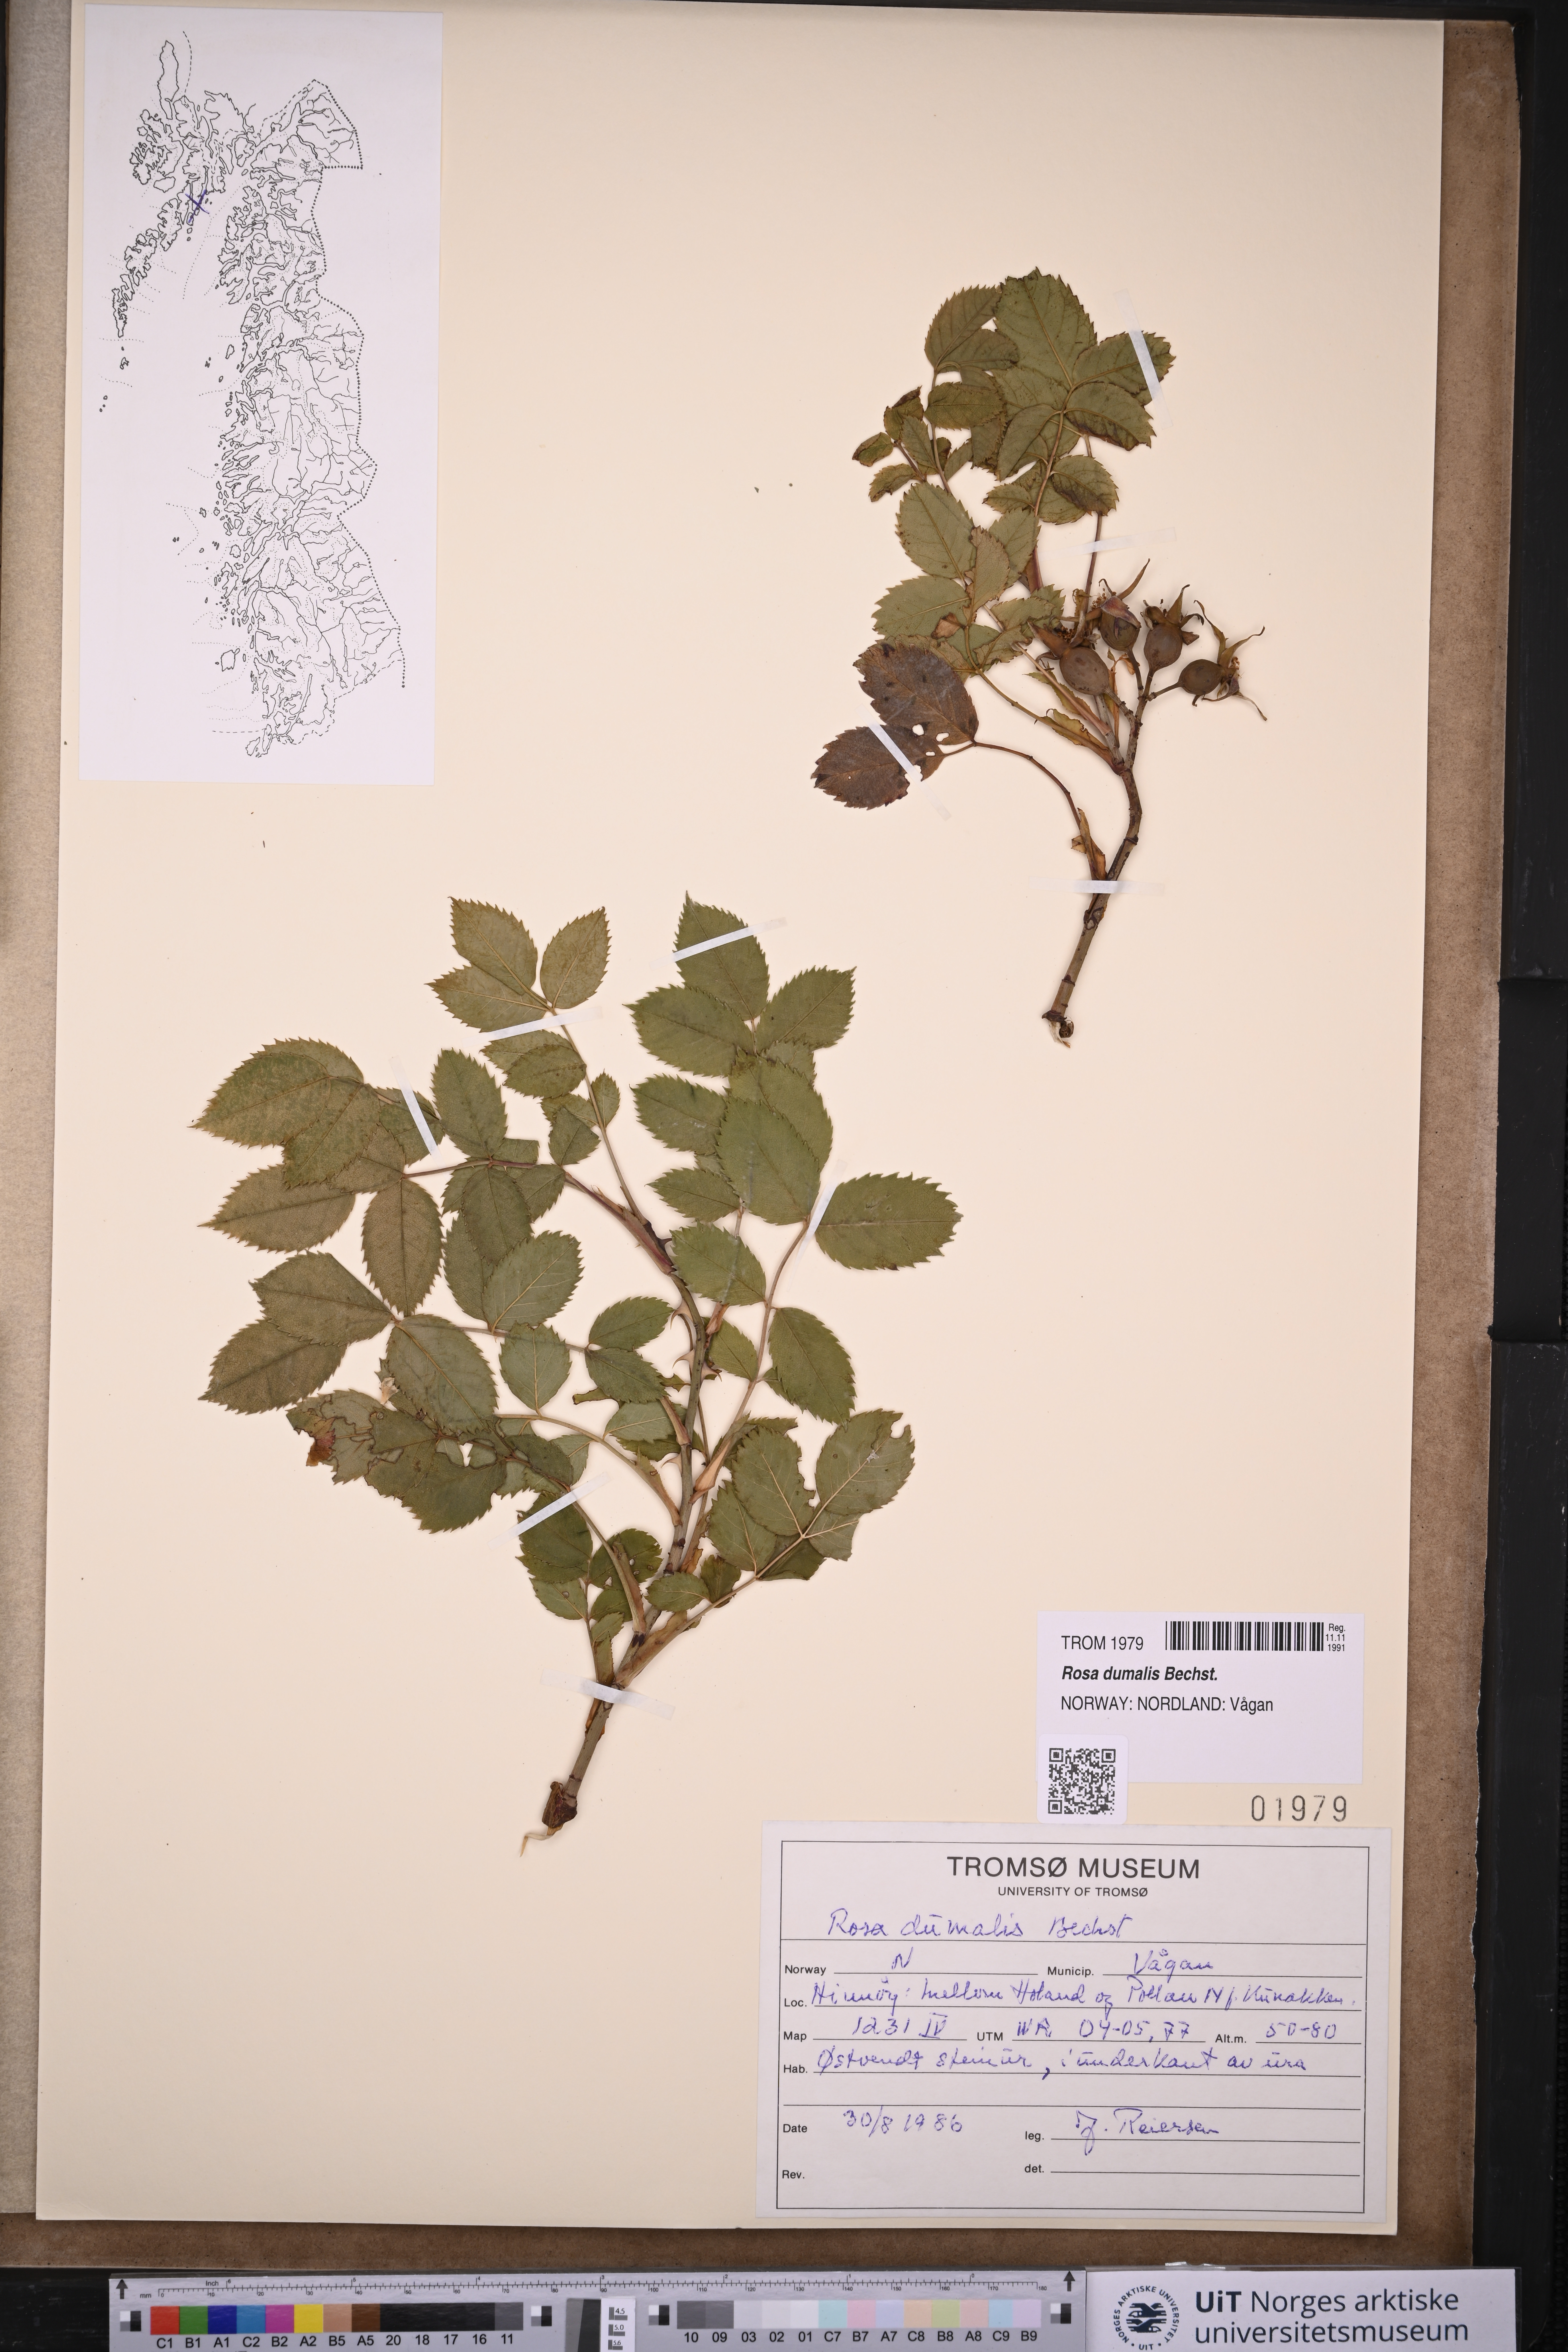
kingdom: Plantae
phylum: Tracheophyta
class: Magnoliopsida
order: Rosales
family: Rosaceae
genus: Rosa
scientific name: Rosa dumalis
